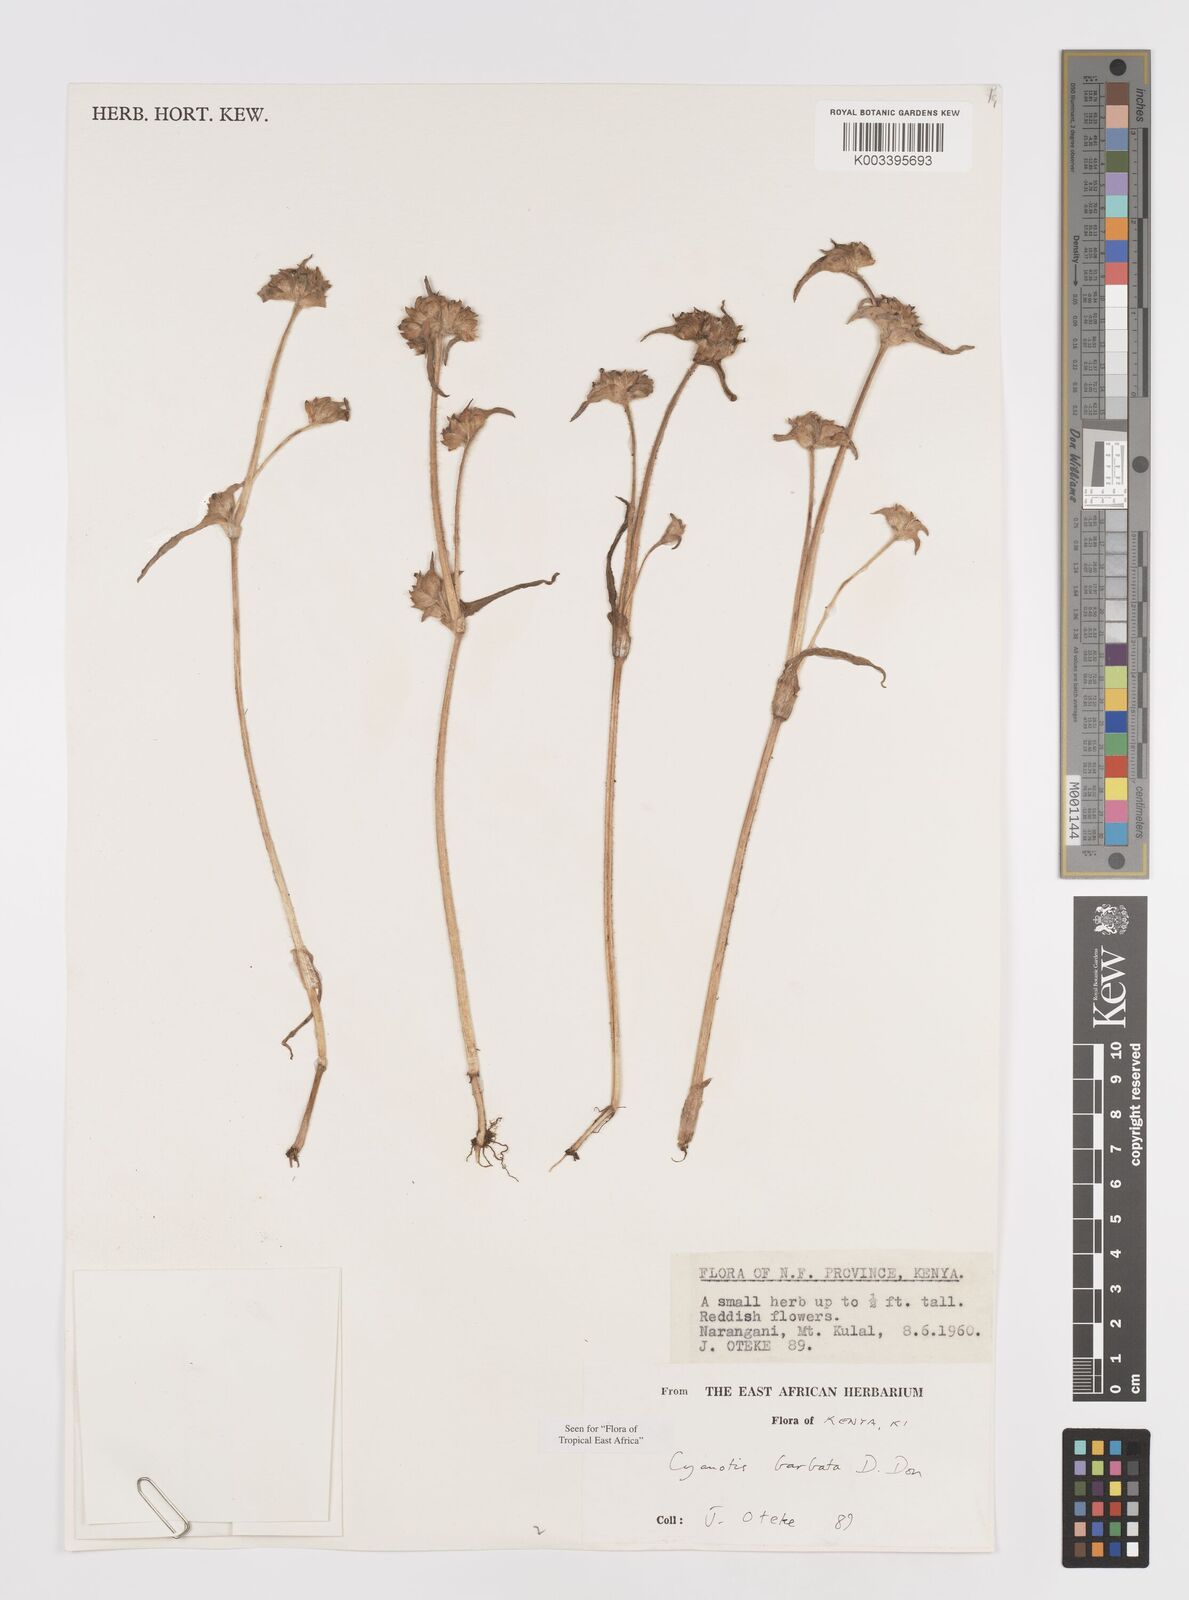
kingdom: Plantae
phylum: Tracheophyta
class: Liliopsida
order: Commelinales
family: Commelinaceae
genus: Cyanotis
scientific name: Cyanotis vaga
